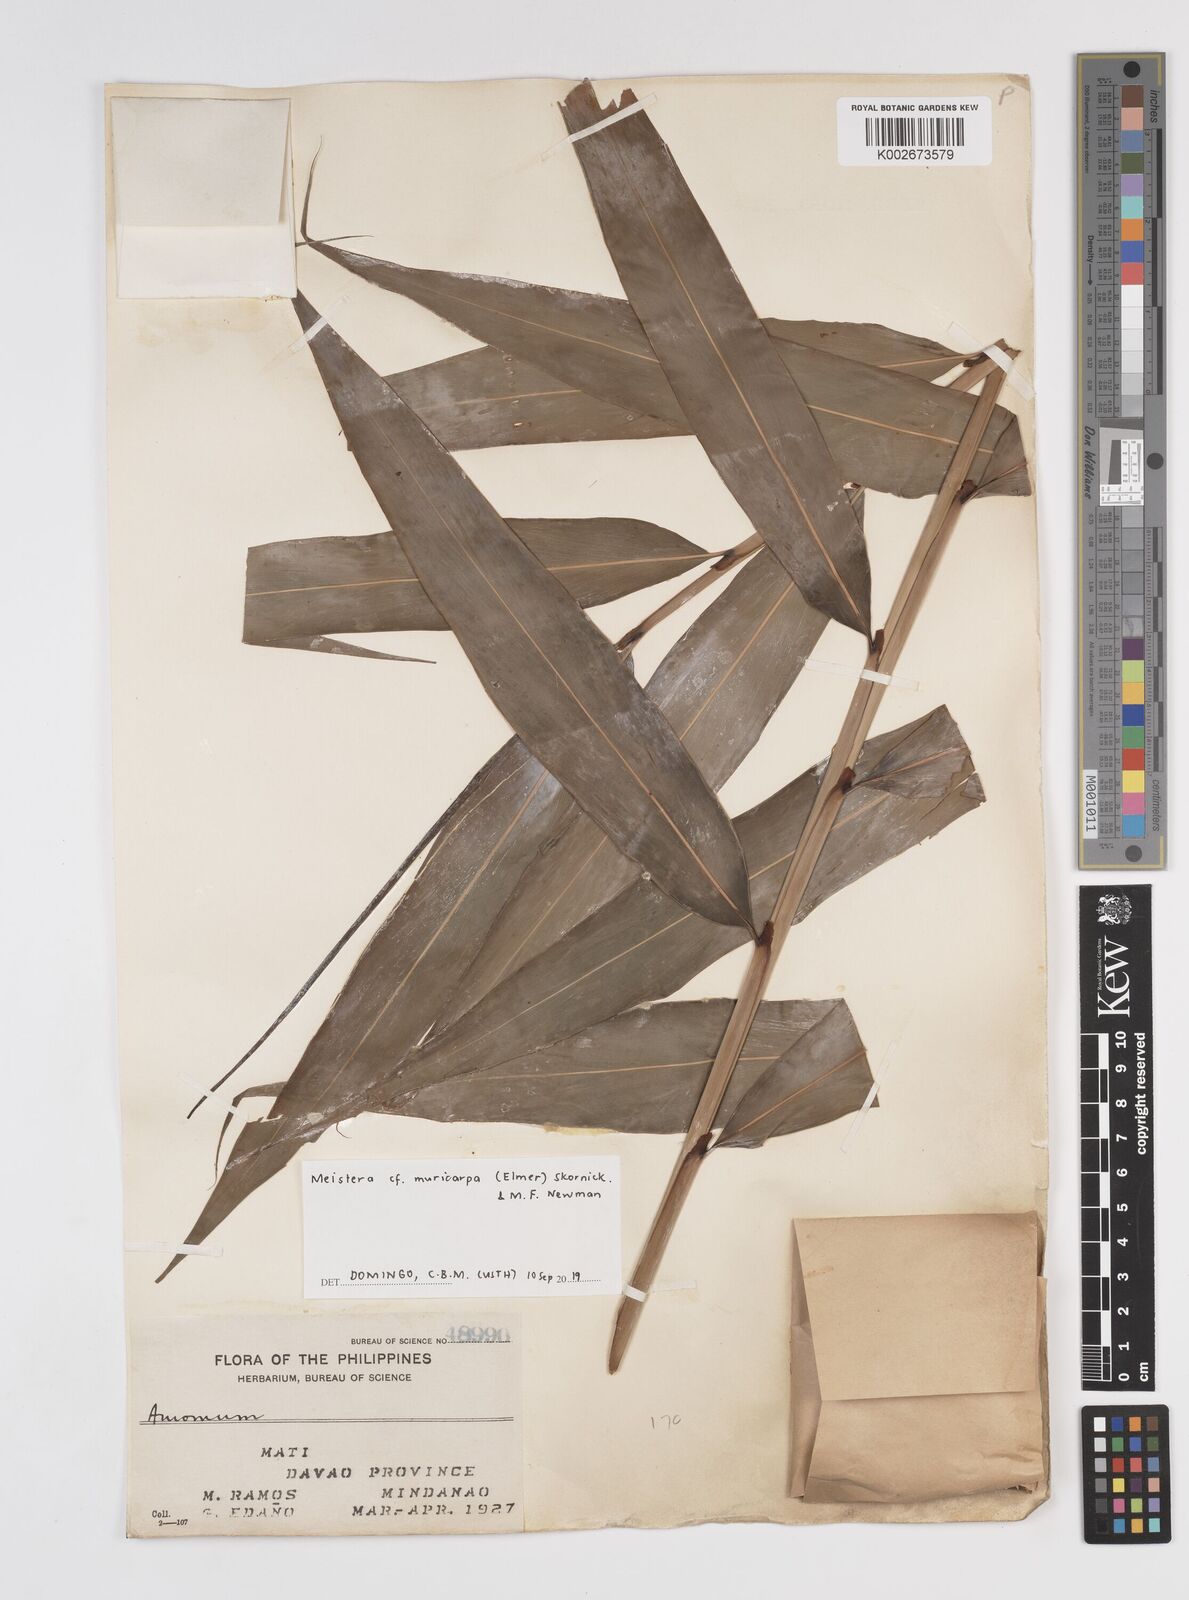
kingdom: Plantae
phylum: Tracheophyta
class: Liliopsida
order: Zingiberales
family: Zingiberaceae
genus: Meistera
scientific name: Meistera muricarpa
